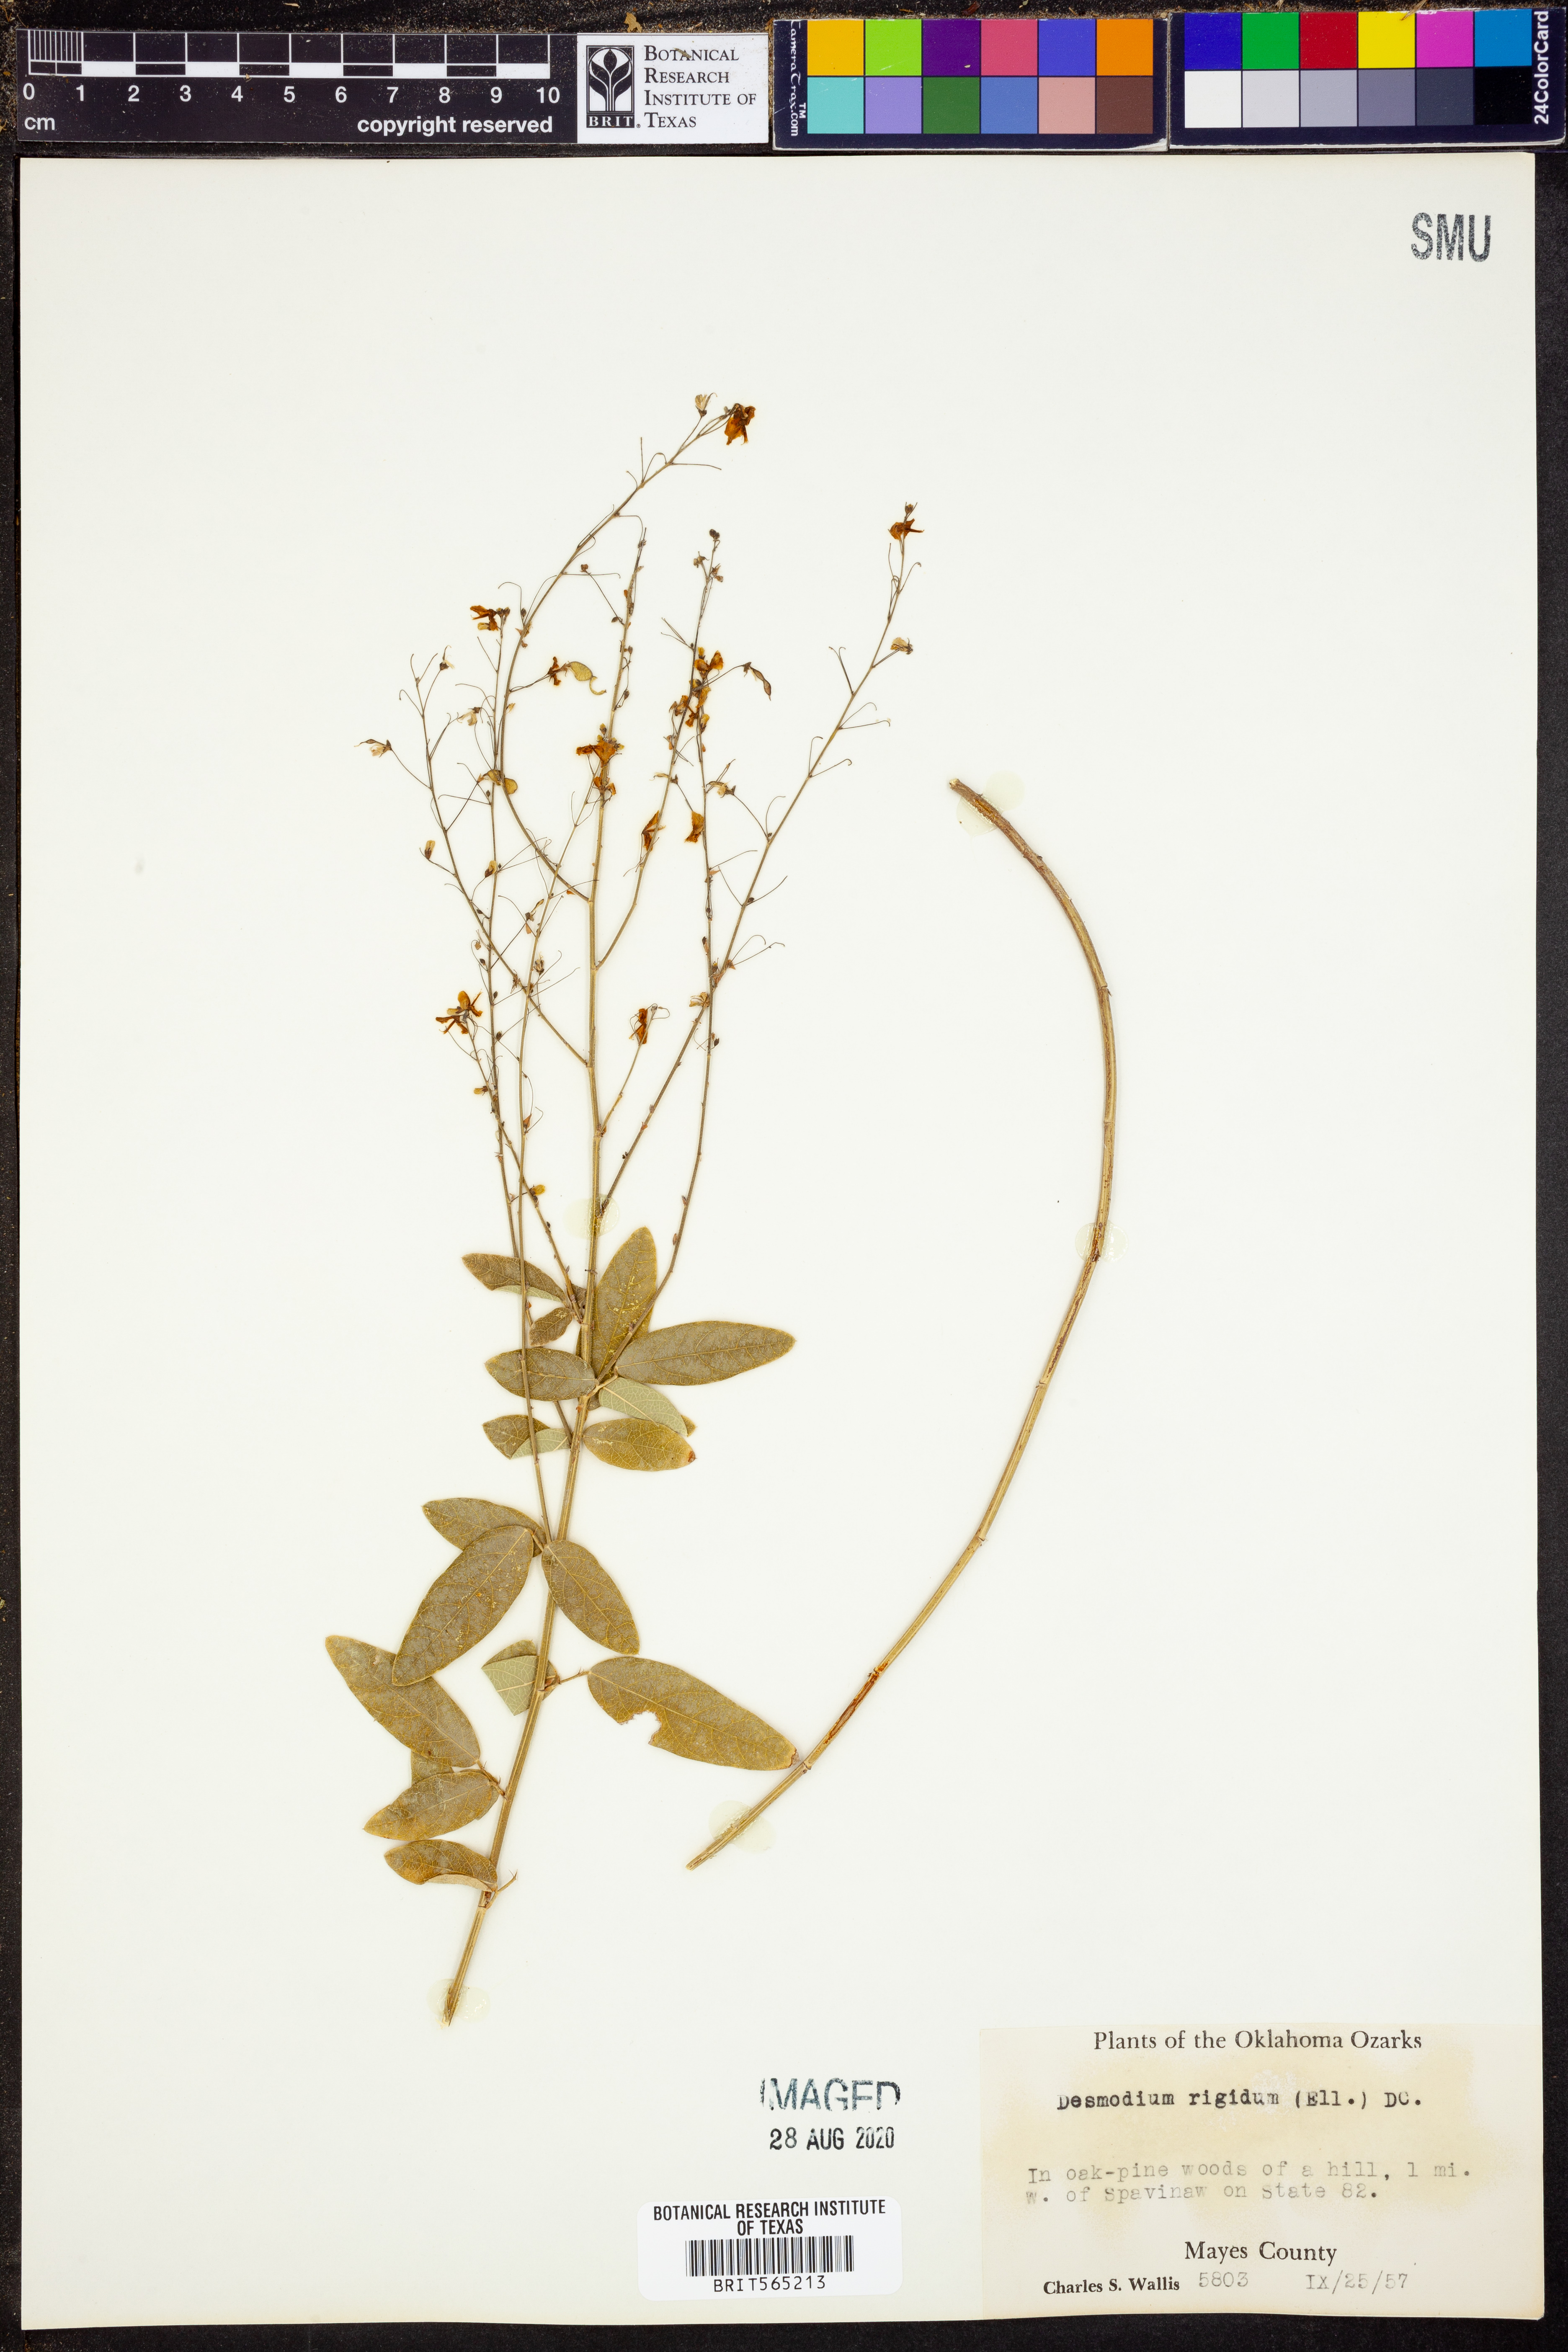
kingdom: Plantae
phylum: Tracheophyta
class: Magnoliopsida
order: Fabales
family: Fabaceae
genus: Desmodium
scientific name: Desmodium obtusum
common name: Stiff tick trefoil
